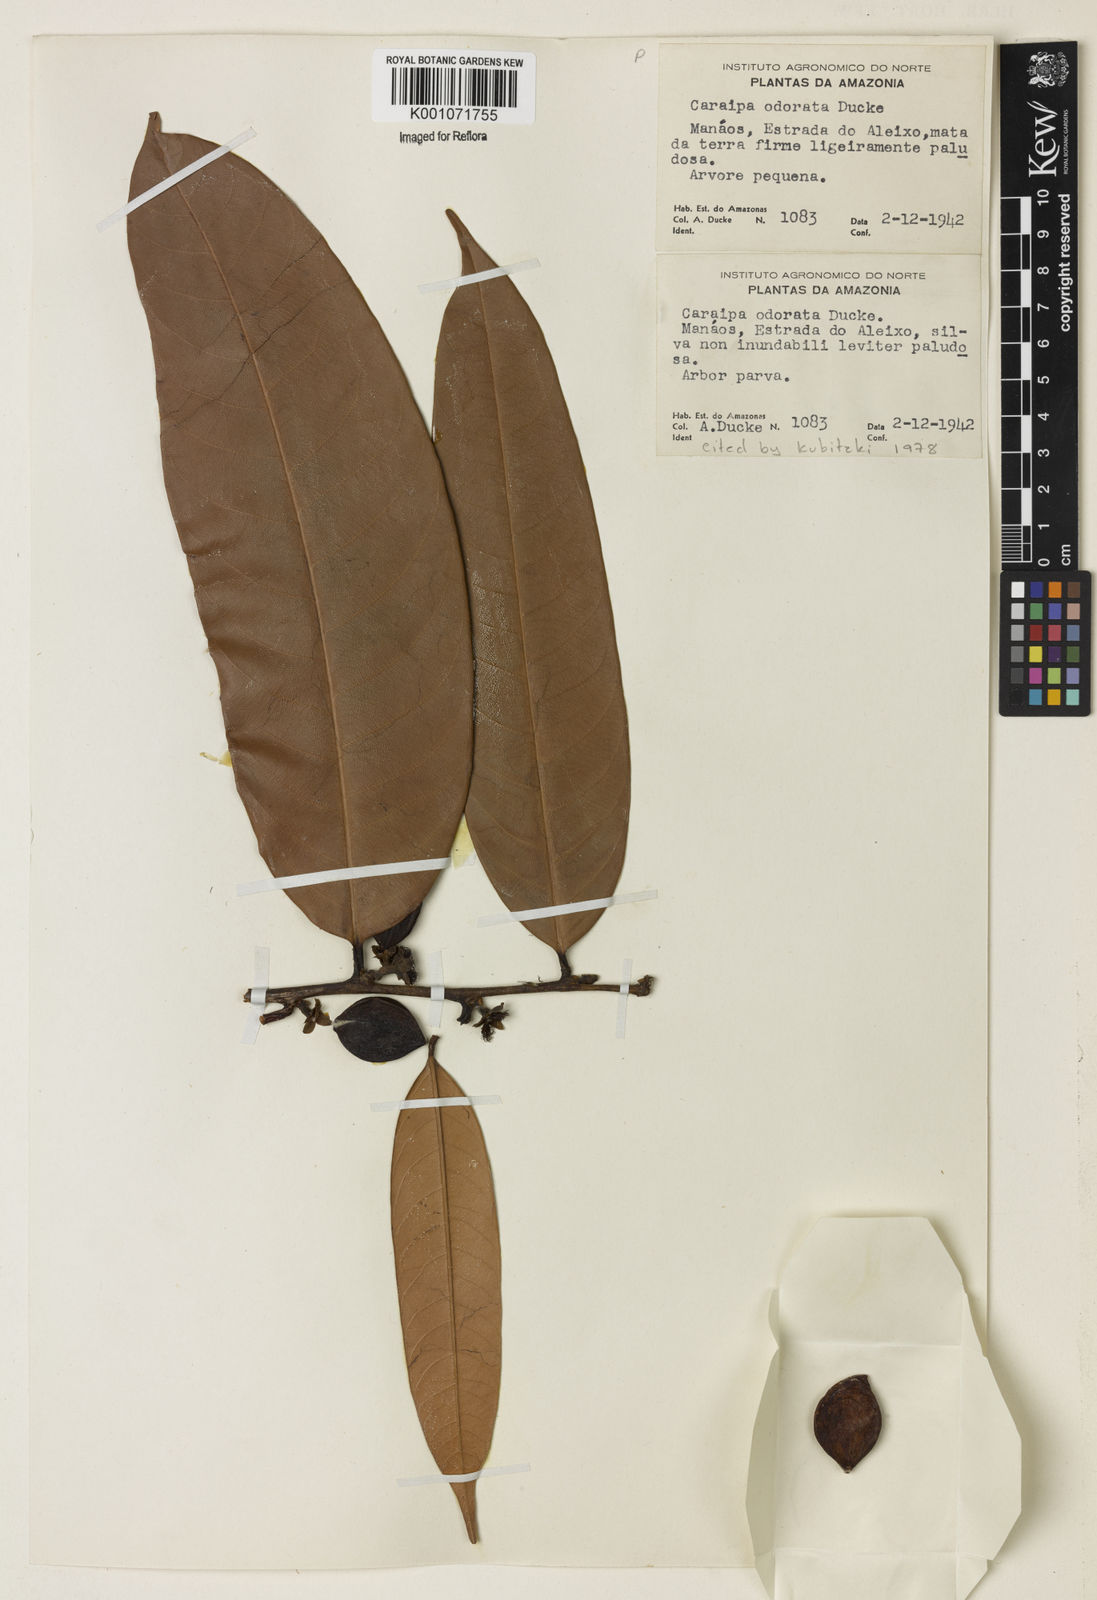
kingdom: Plantae
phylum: Tracheophyta
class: Magnoliopsida
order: Malpighiales
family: Calophyllaceae
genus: Caraipa
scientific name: Caraipa odorata
